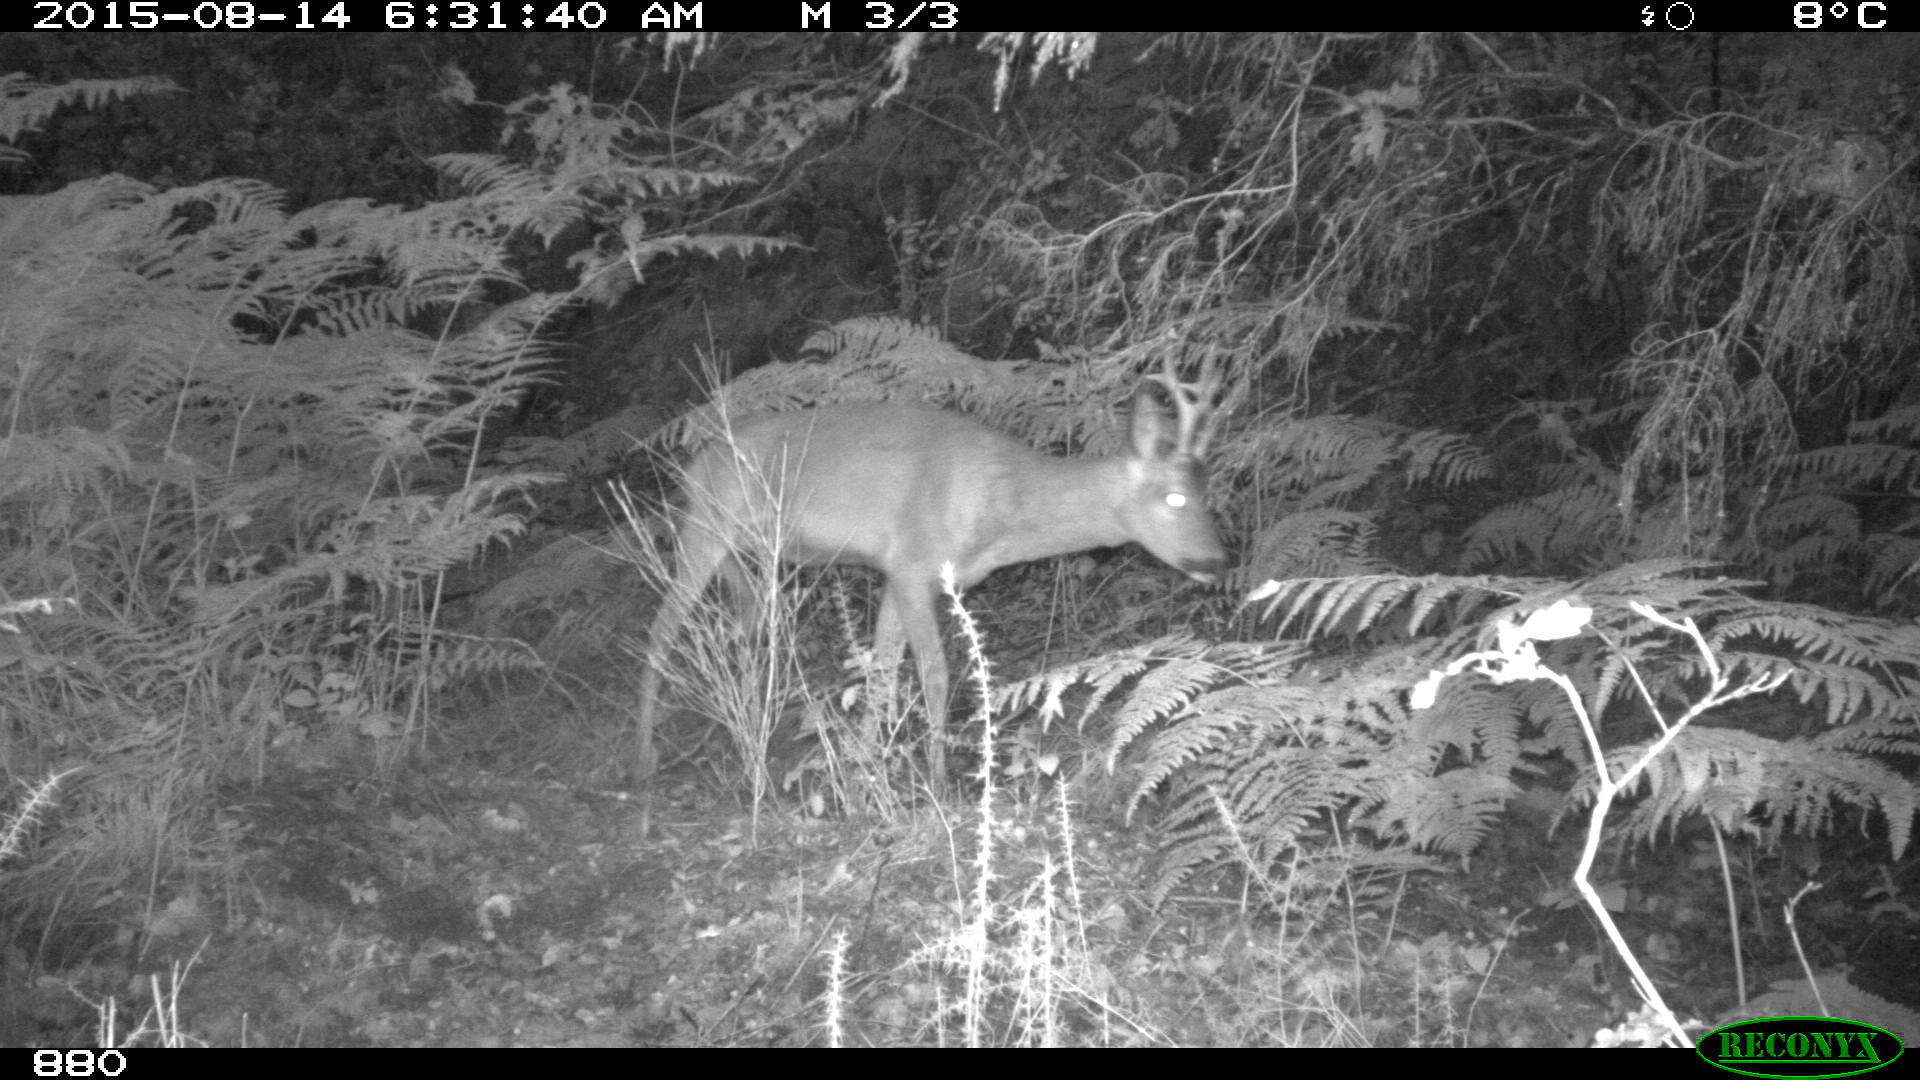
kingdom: Animalia
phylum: Chordata
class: Mammalia
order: Artiodactyla
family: Cervidae
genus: Capreolus
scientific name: Capreolus capreolus
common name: Western roe deer
